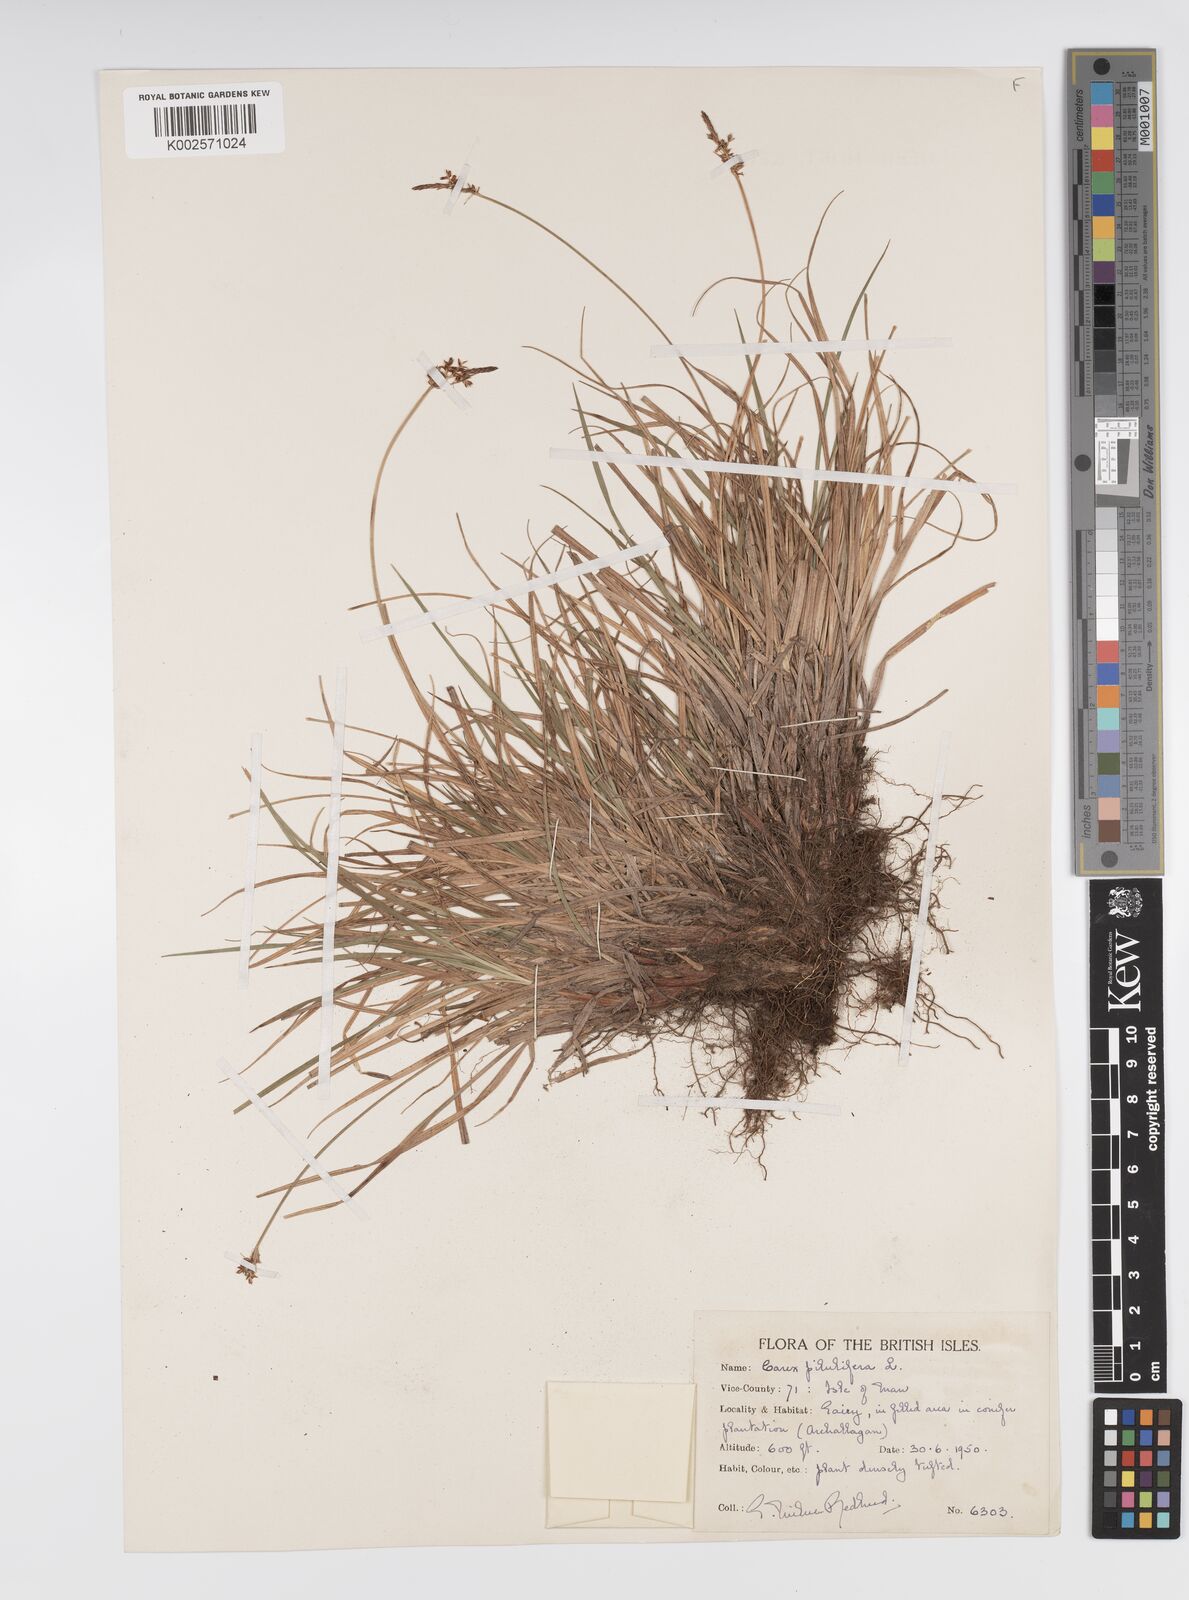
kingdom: Plantae
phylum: Tracheophyta
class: Liliopsida
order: Poales
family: Cyperaceae
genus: Carex
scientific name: Carex pilulifera
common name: Pill sedge
